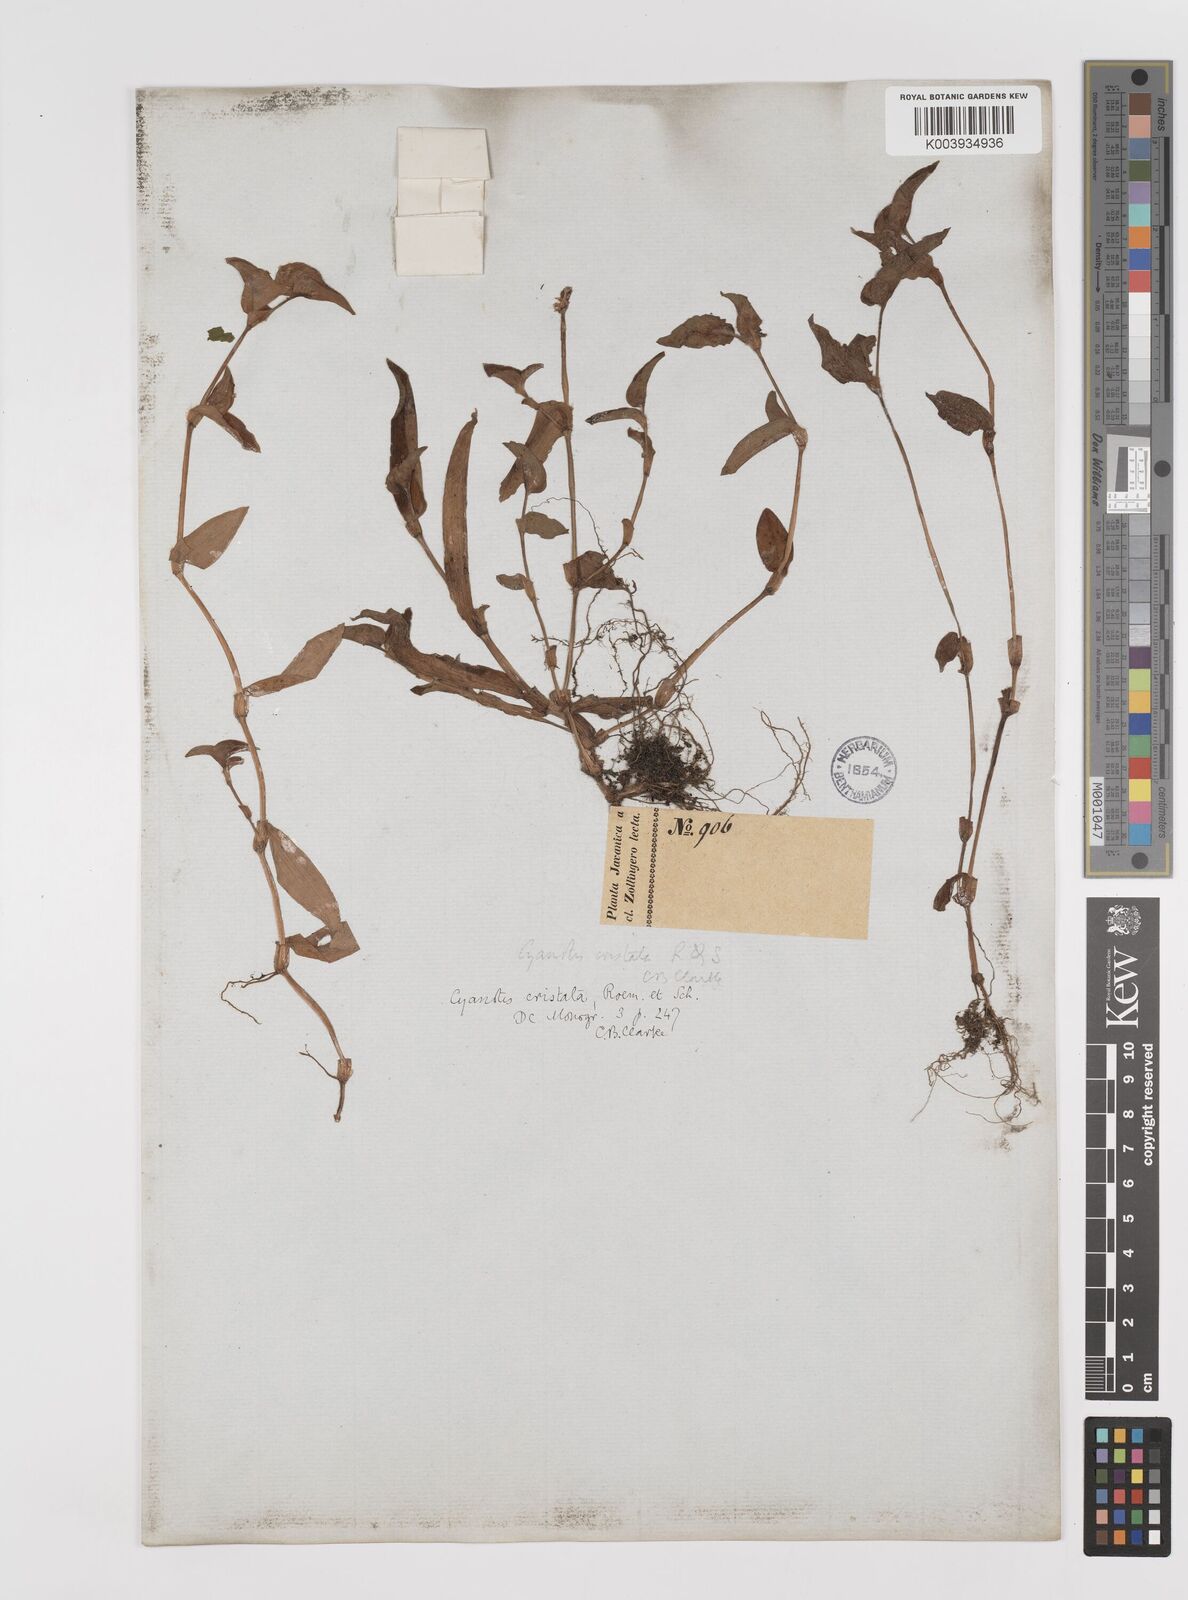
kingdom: Plantae
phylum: Tracheophyta
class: Liliopsida
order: Commelinales
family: Commelinaceae
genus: Cyanotis
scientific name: Cyanotis cristata
